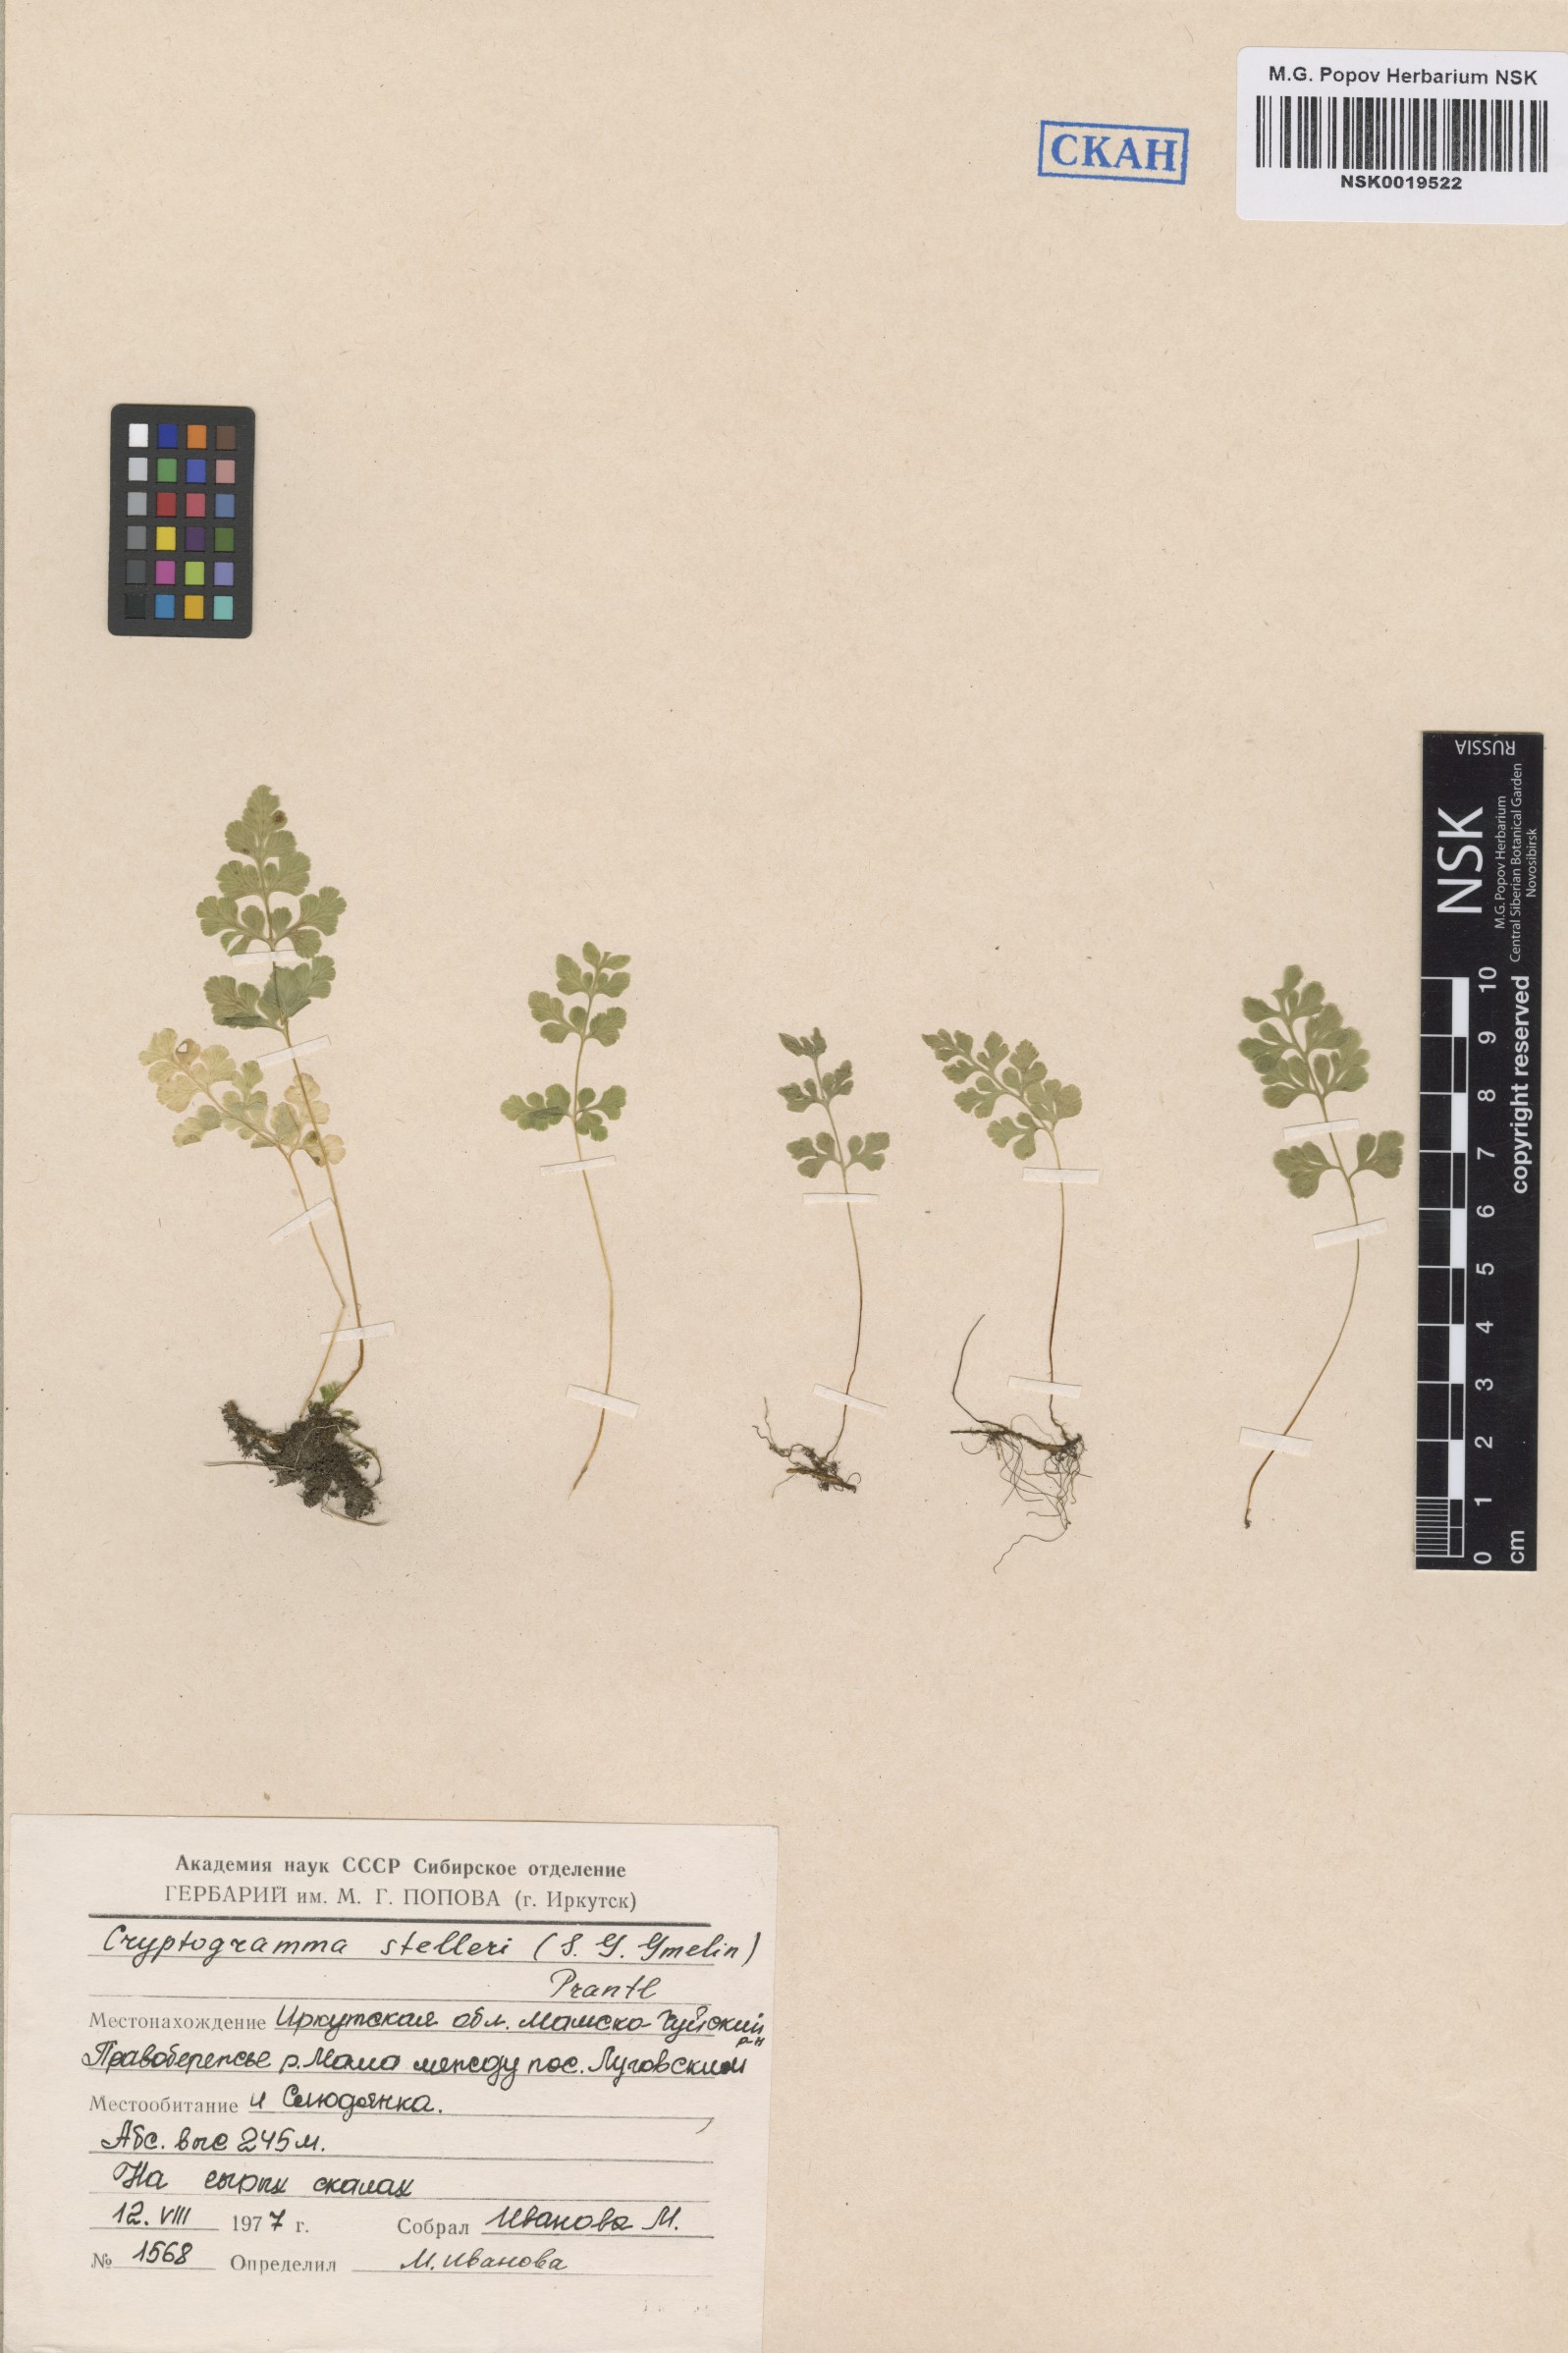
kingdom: Plantae
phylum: Tracheophyta
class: Polypodiopsida
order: Polypodiales
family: Pteridaceae
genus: Cryptogramma
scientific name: Cryptogramma stelleri
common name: Cliff-brake
